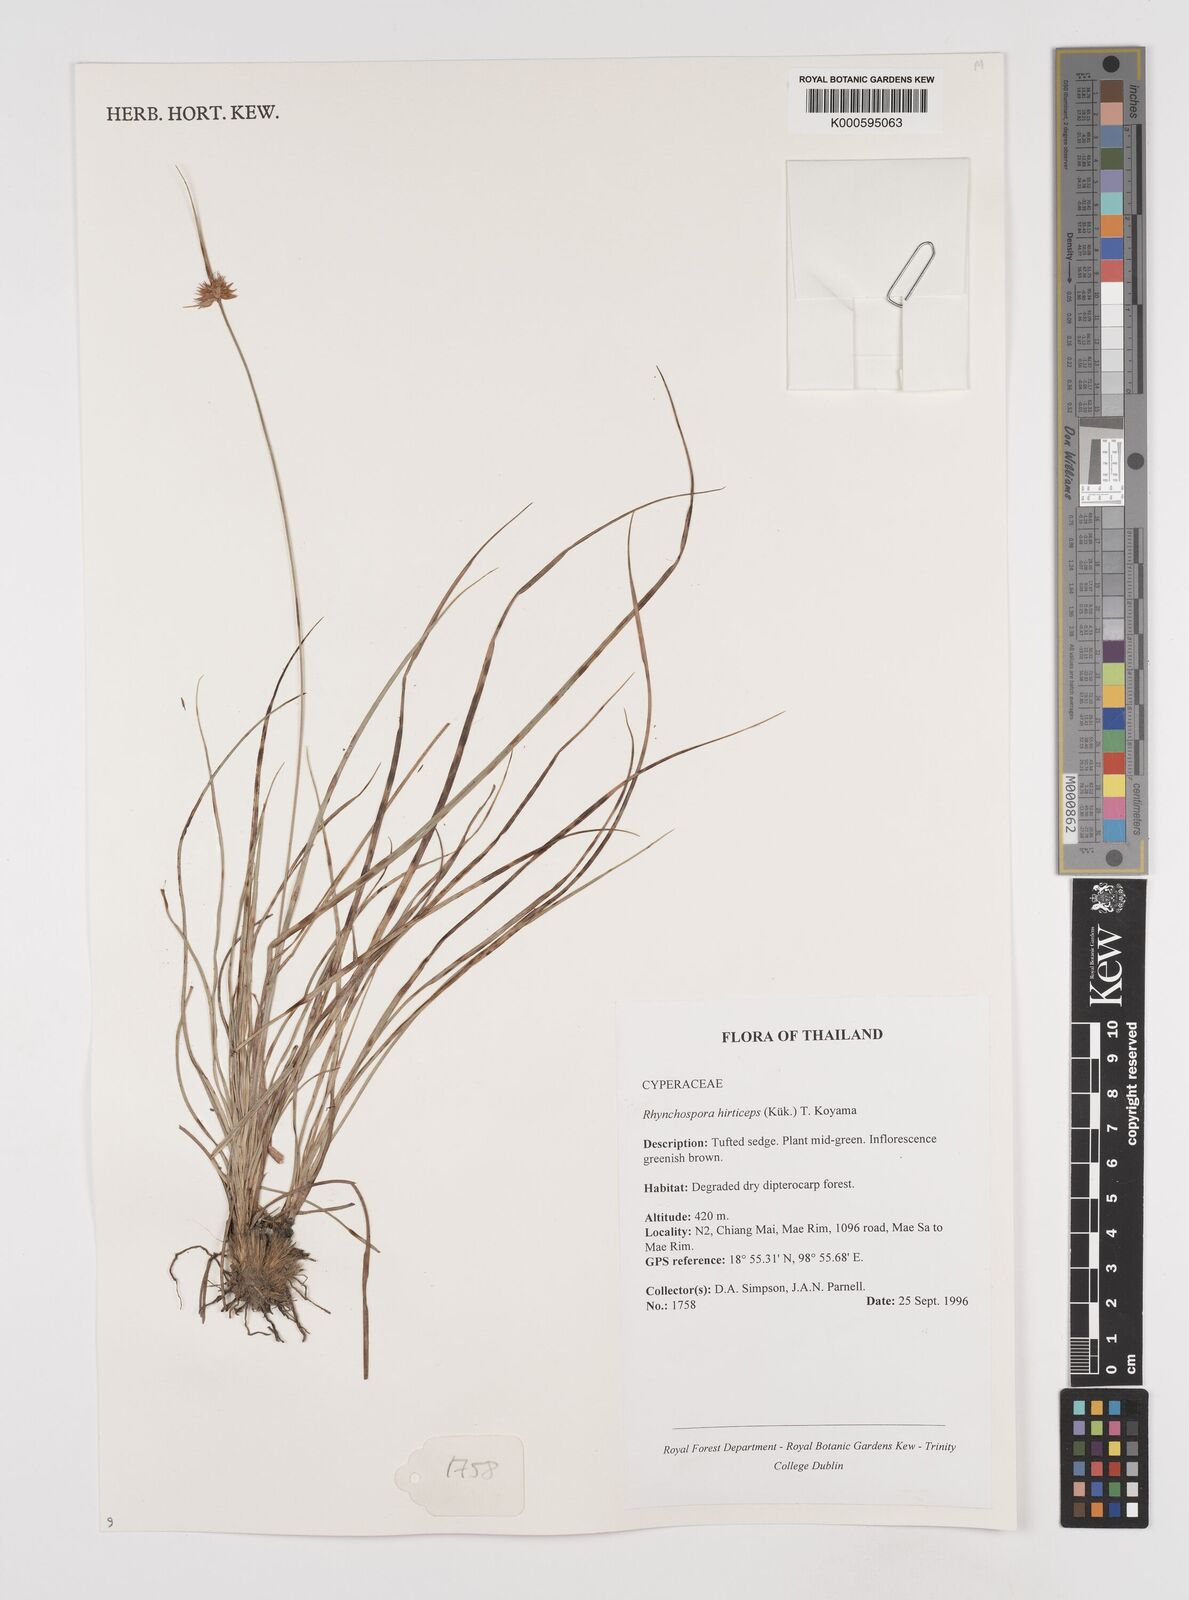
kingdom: Plantae
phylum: Tracheophyta
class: Liliopsida
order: Poales
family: Cyperaceae
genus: Rhynchospora
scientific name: Rhynchospora
